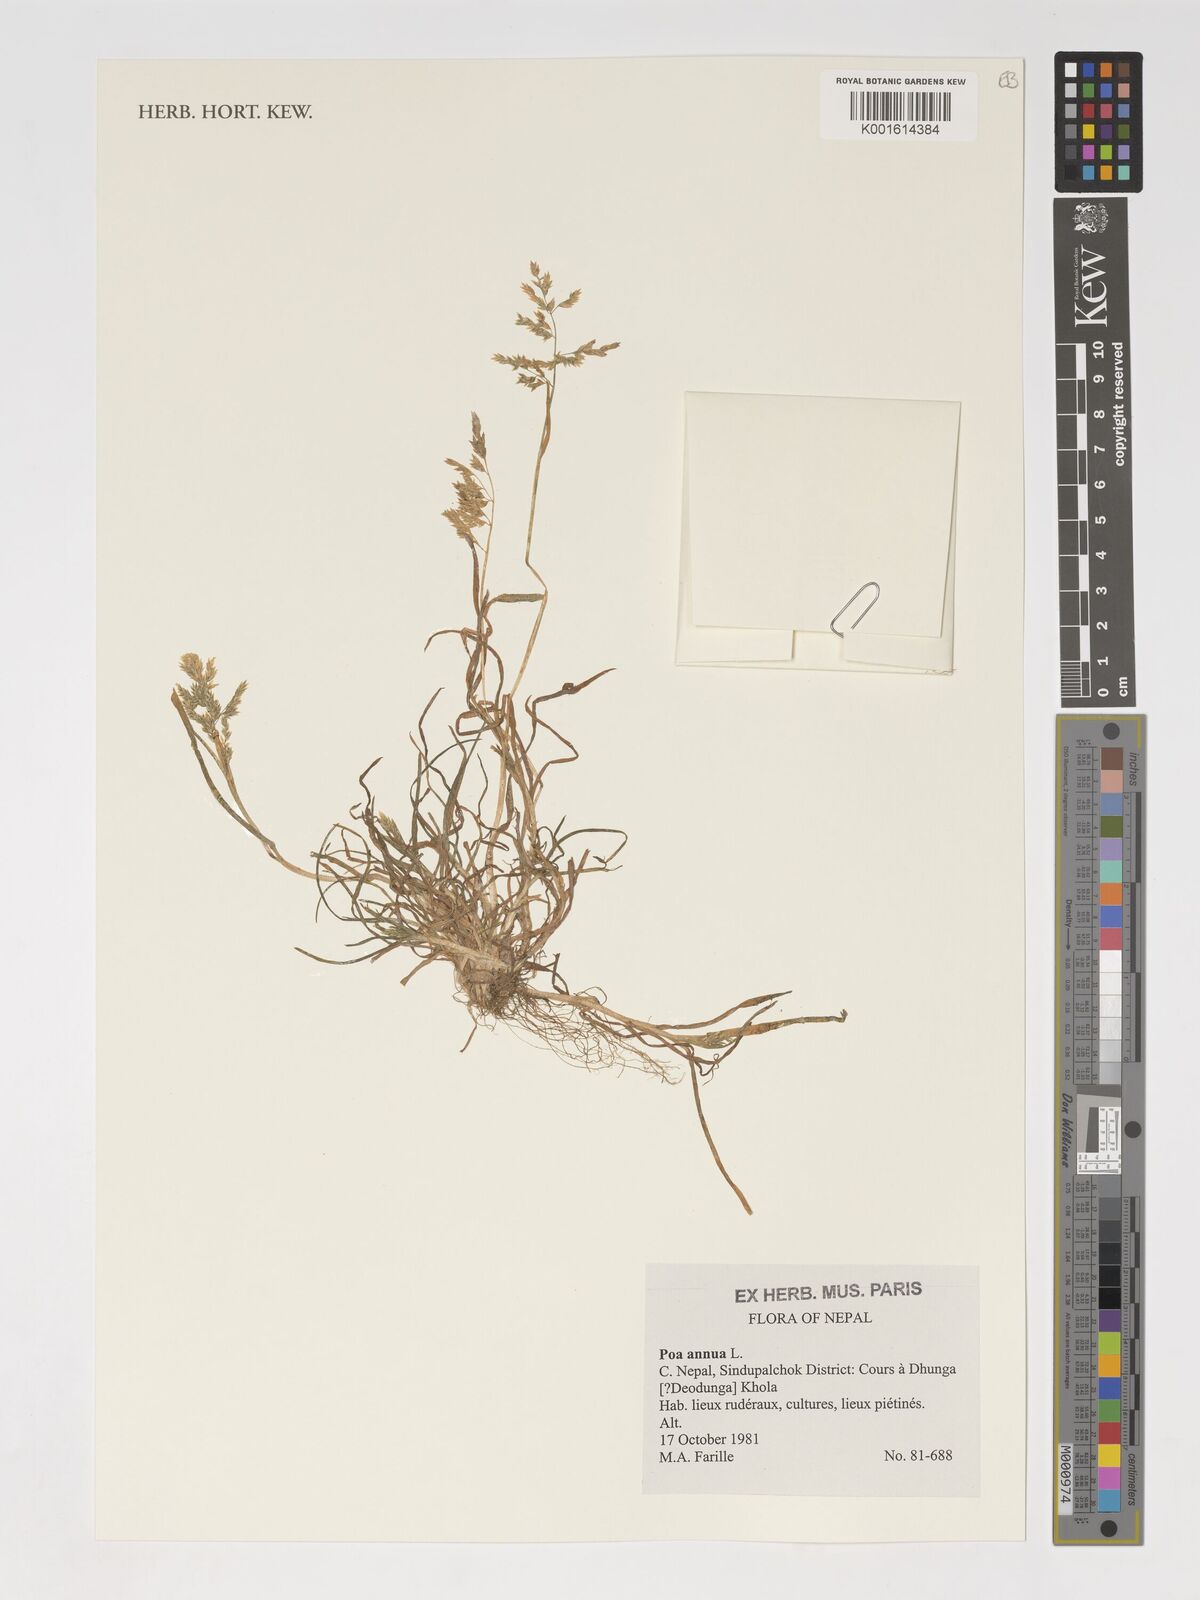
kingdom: Plantae
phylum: Tracheophyta
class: Liliopsida
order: Poales
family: Poaceae
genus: Poa
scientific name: Poa infirma
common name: Weak bluegrass
